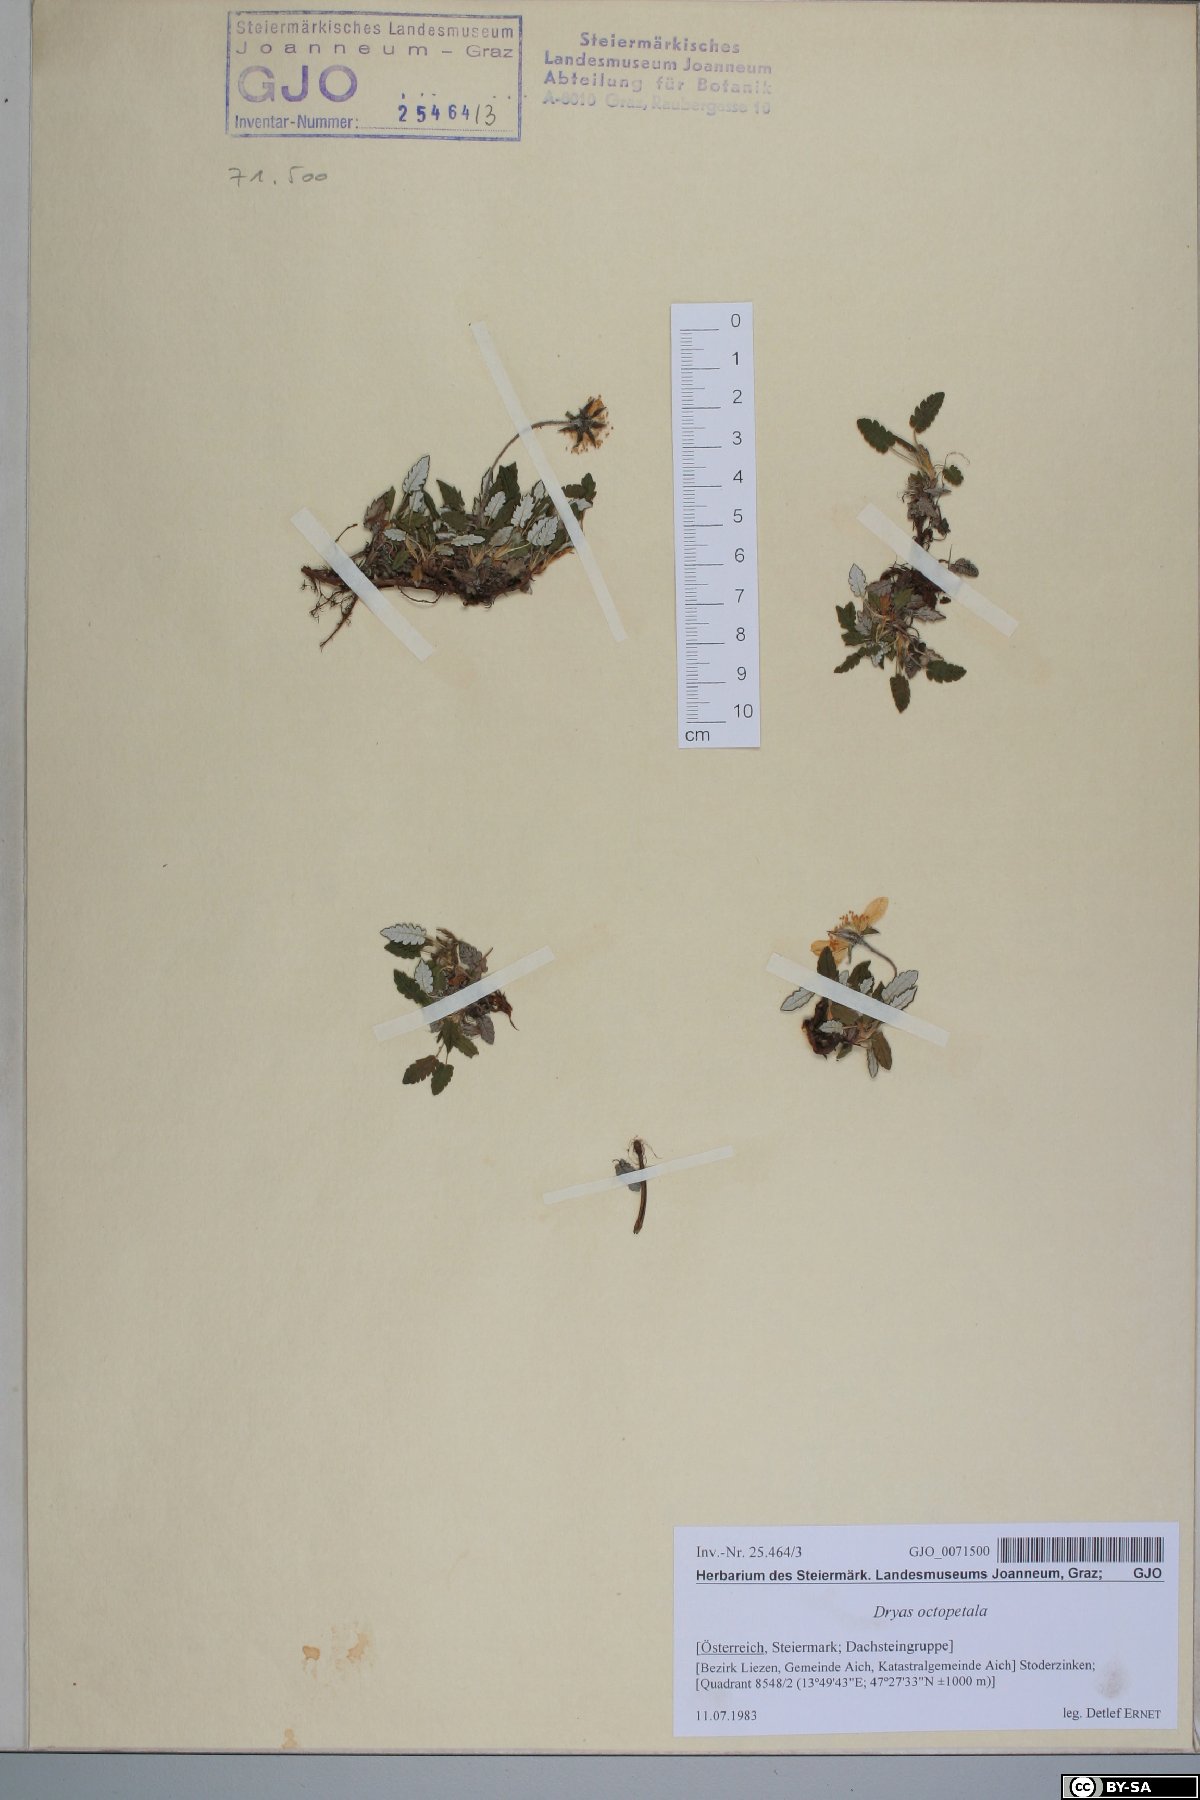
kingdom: Plantae
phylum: Tracheophyta
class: Magnoliopsida
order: Rosales
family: Rosaceae
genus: Dryas
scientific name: Dryas octopetala
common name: Eight-petal mountain-avens
